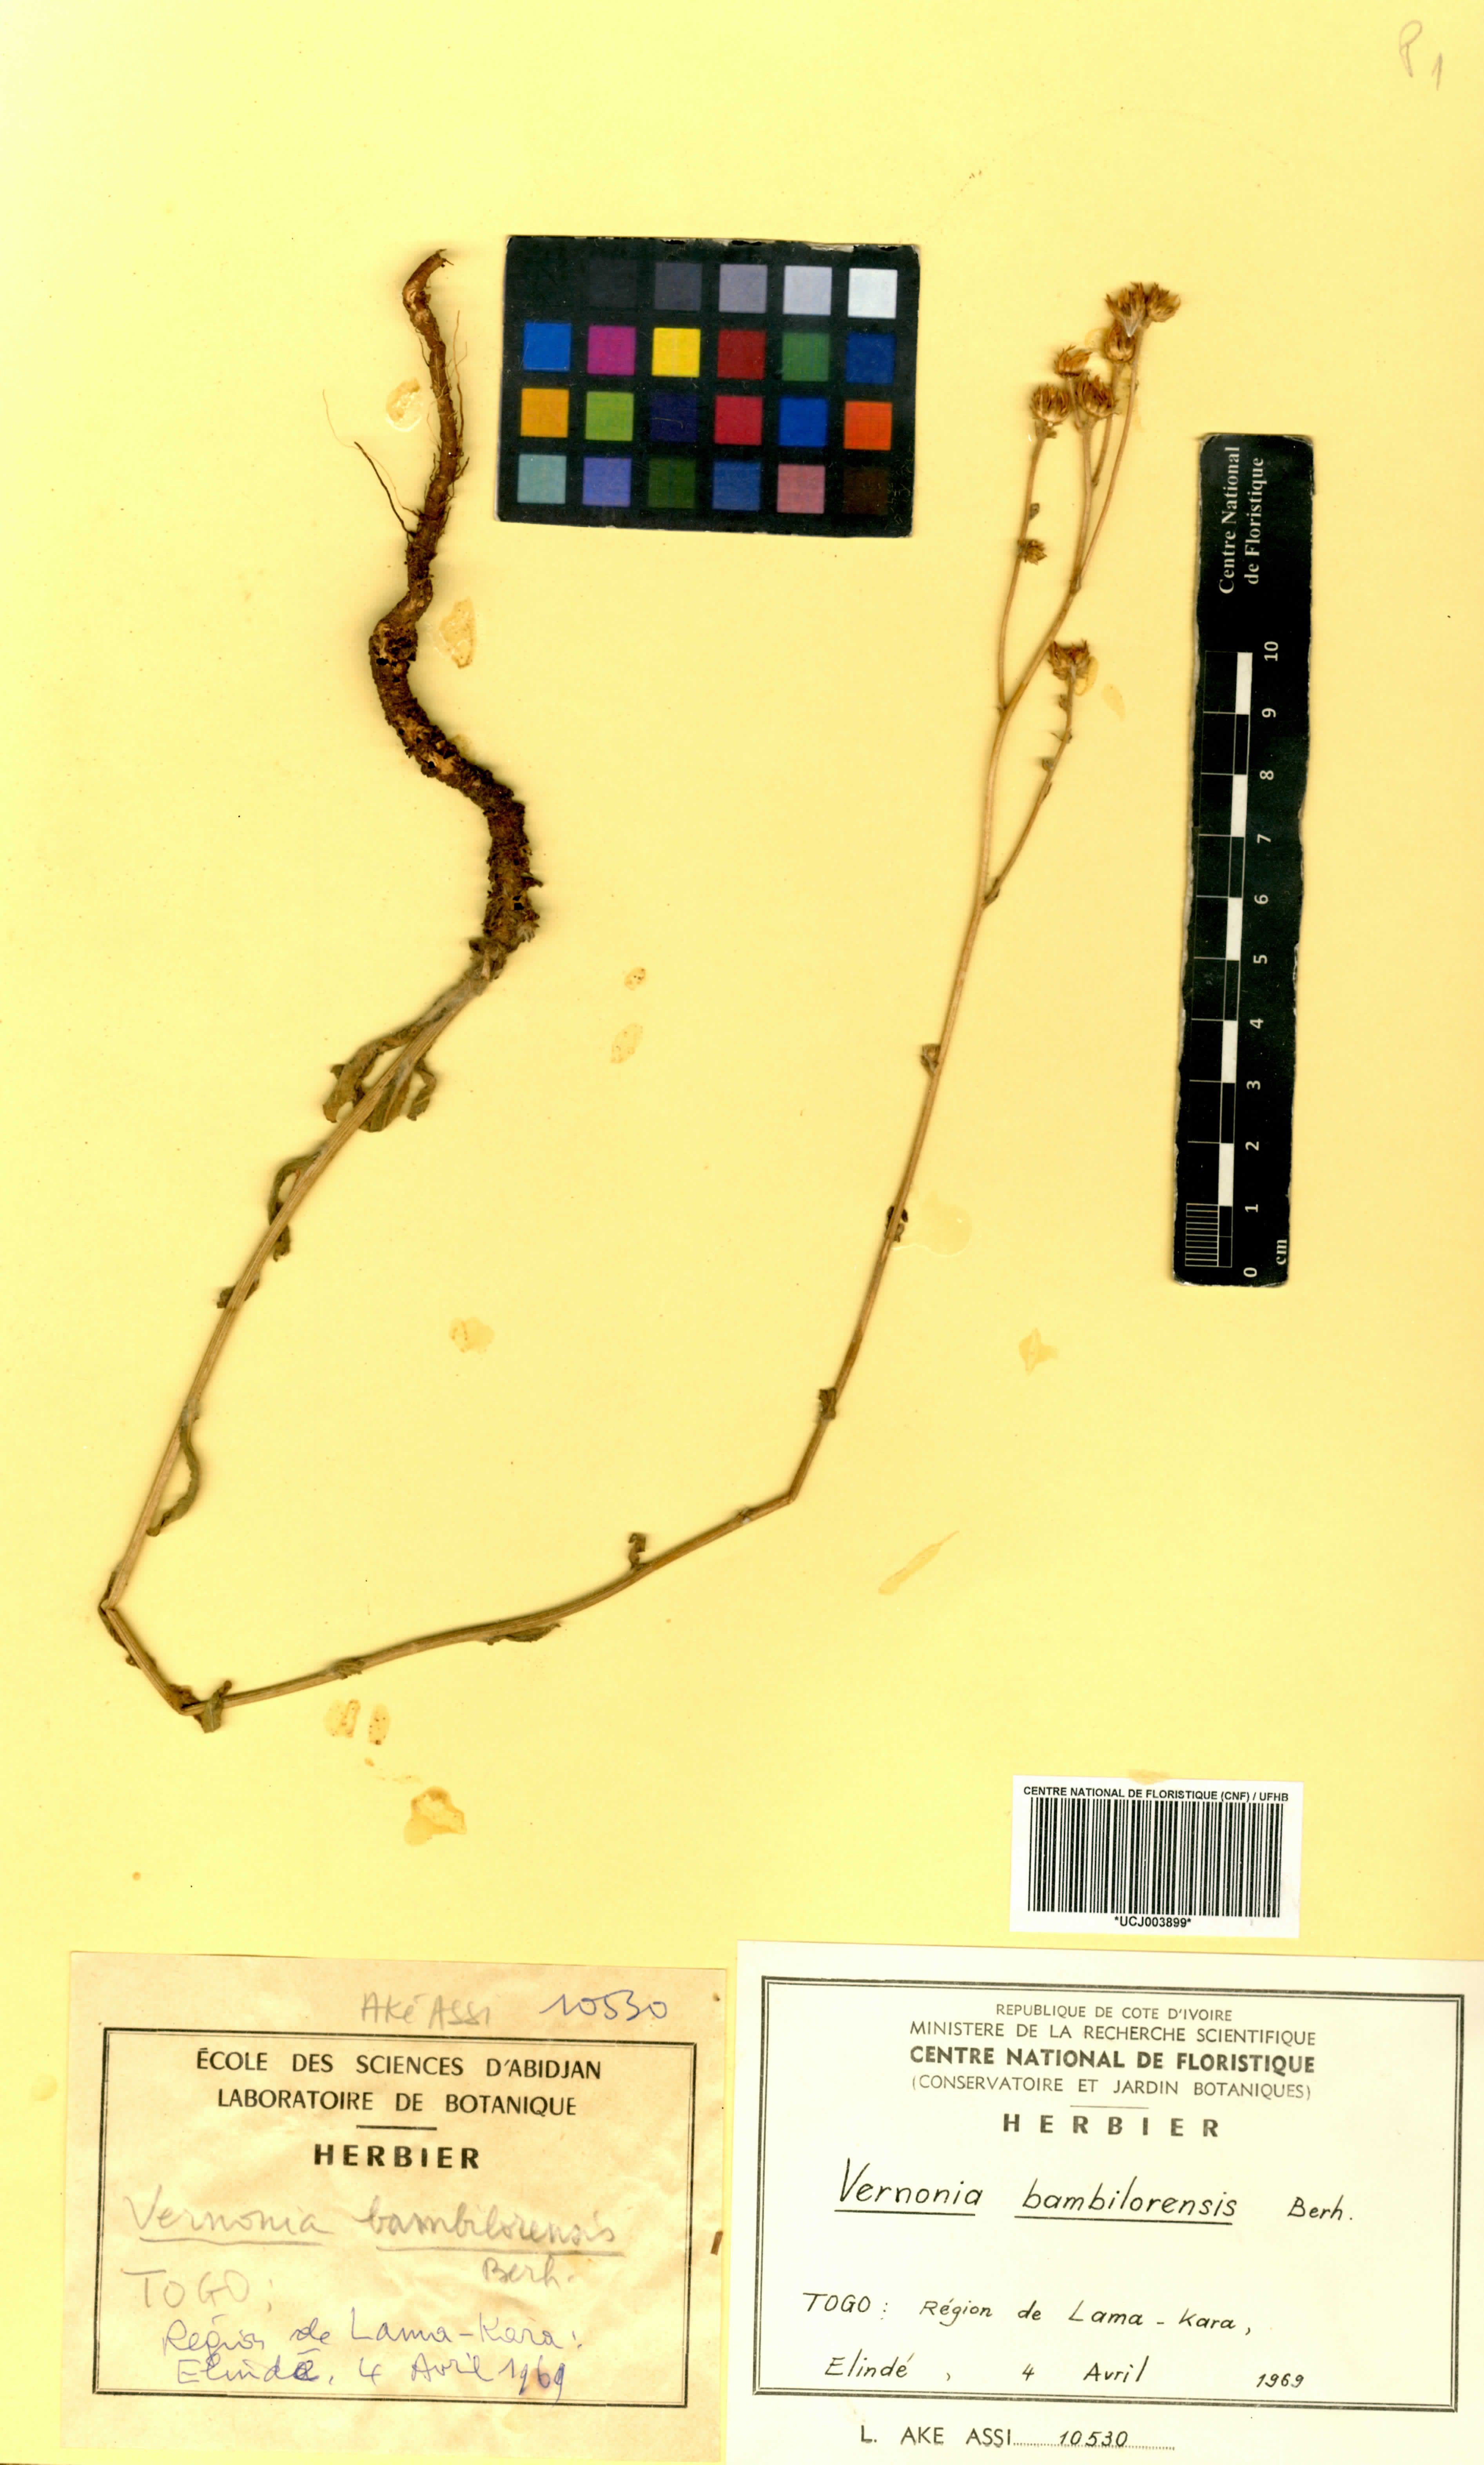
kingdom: Plantae
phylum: Tracheophyta
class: Magnoliopsida
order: Asterales
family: Asteraceae
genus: Vernonia
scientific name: Vernonia bambilorensis
